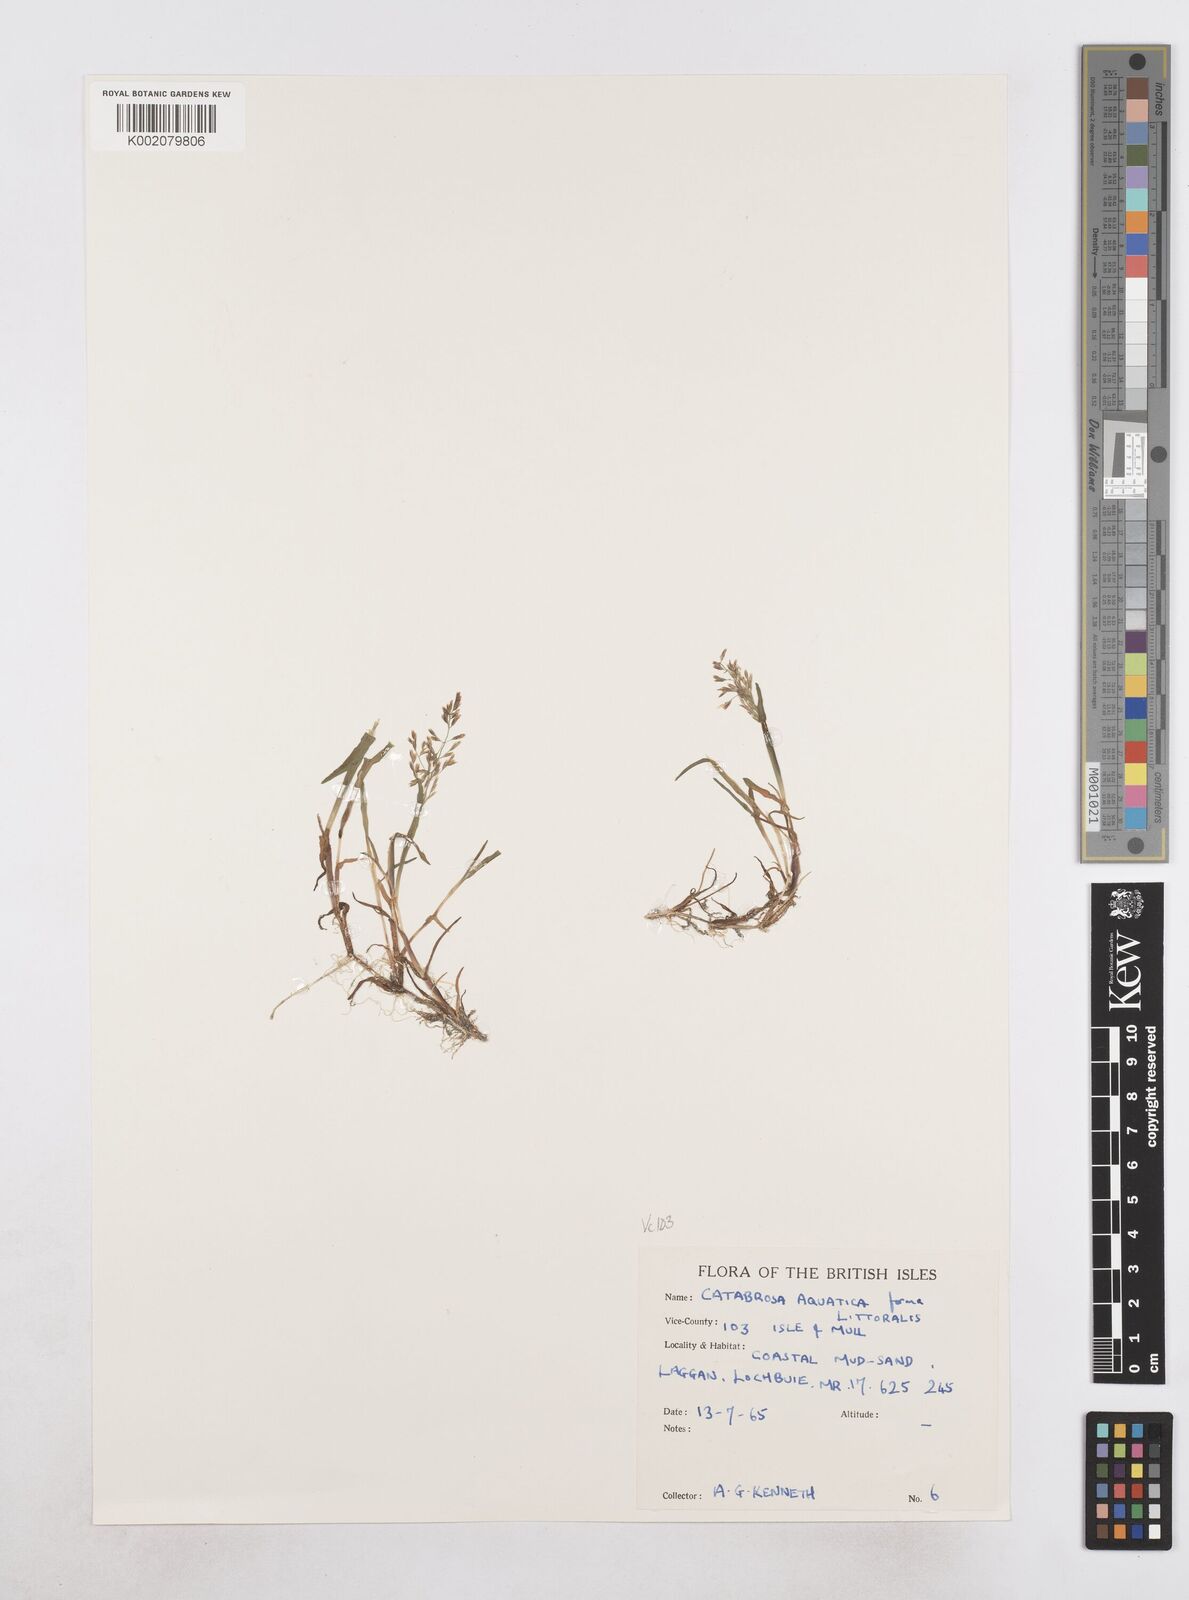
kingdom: Plantae
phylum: Tracheophyta
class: Liliopsida
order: Poales
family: Poaceae
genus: Catabrosa
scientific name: Catabrosa aquatica
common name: Whorl-grass
